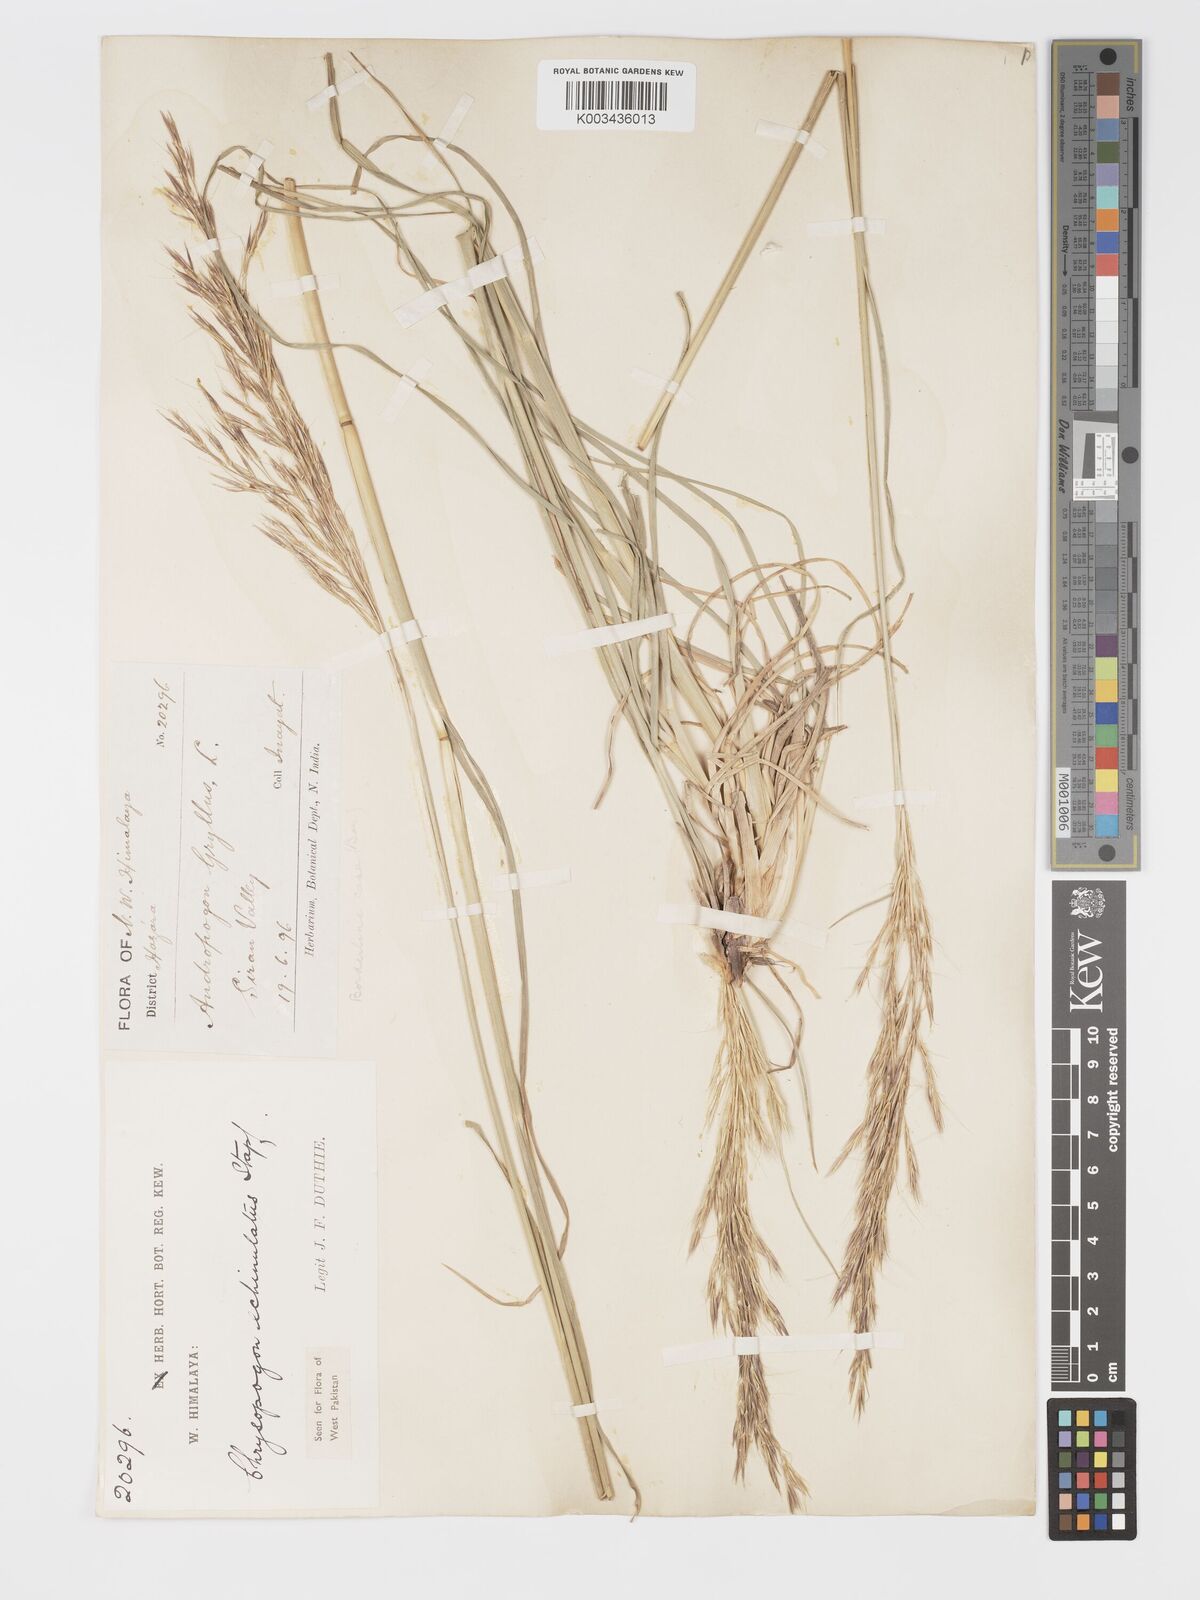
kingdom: Plantae
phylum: Tracheophyta
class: Liliopsida
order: Poales
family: Poaceae
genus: Chrysopogon
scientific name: Chrysopogon gryllus
